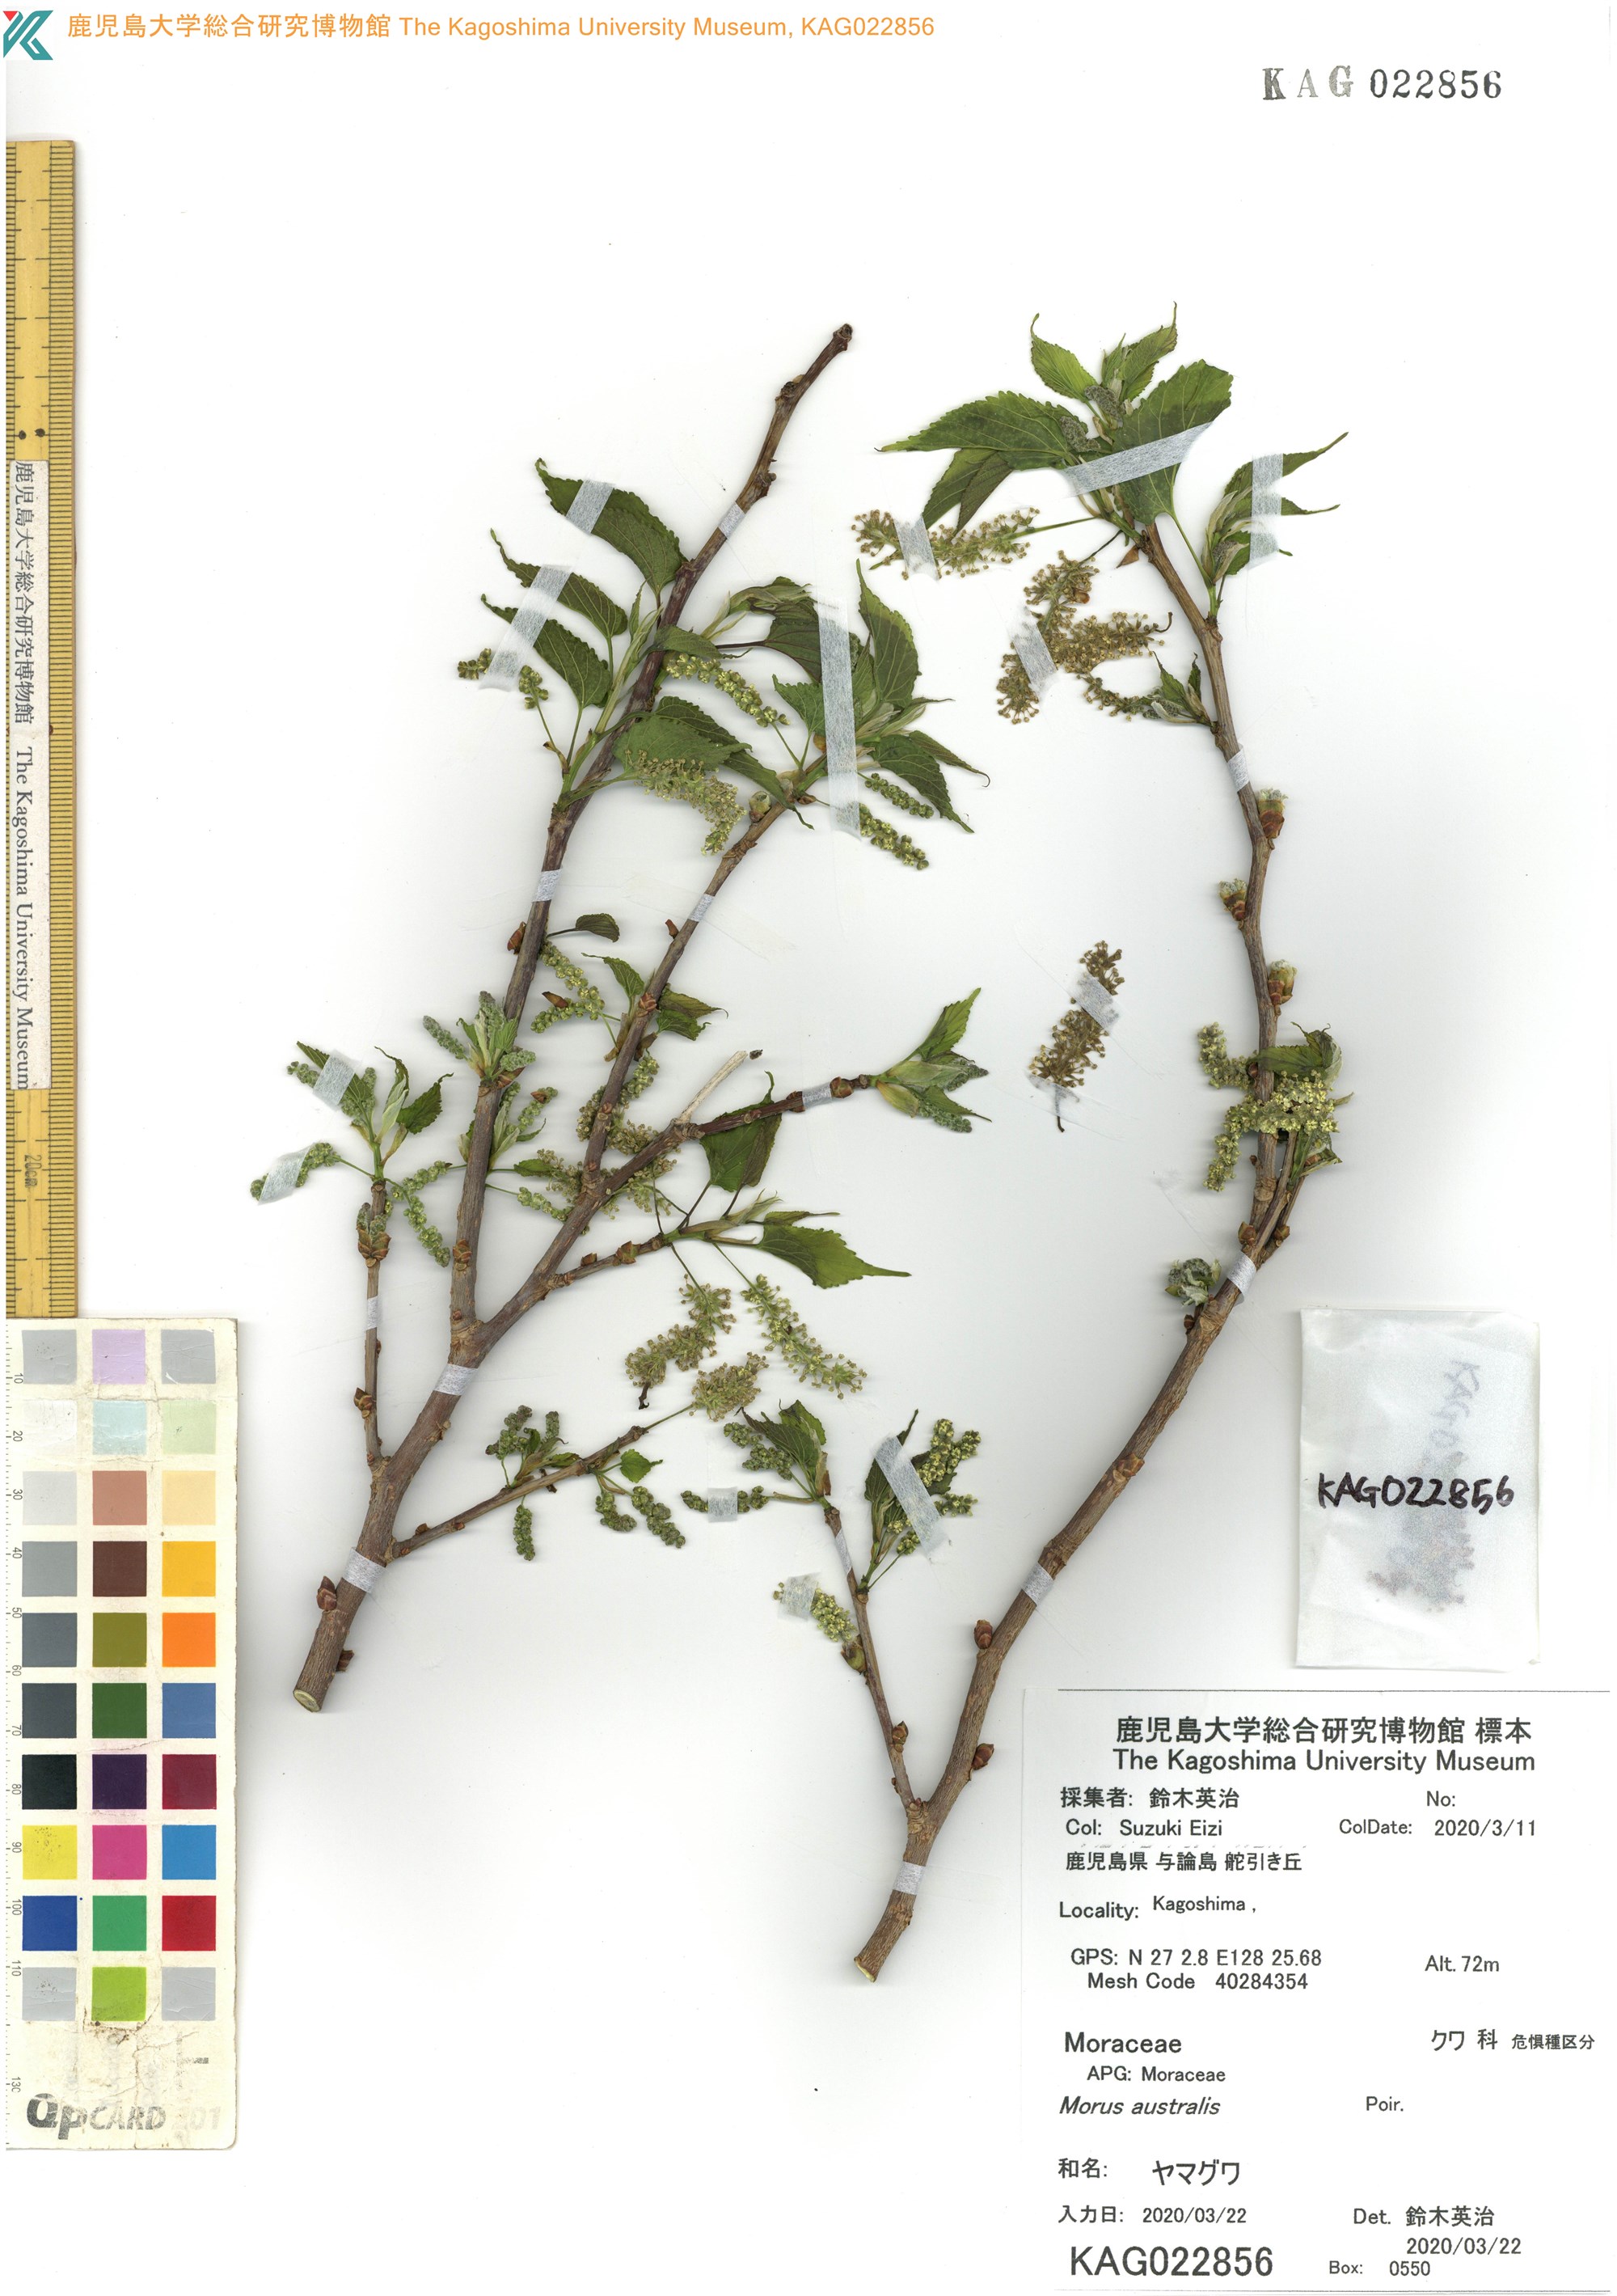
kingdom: Plantae
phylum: Tracheophyta
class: Magnoliopsida
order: Rosales
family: Moraceae
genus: Broussonetia
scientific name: Broussonetia papyrifera
